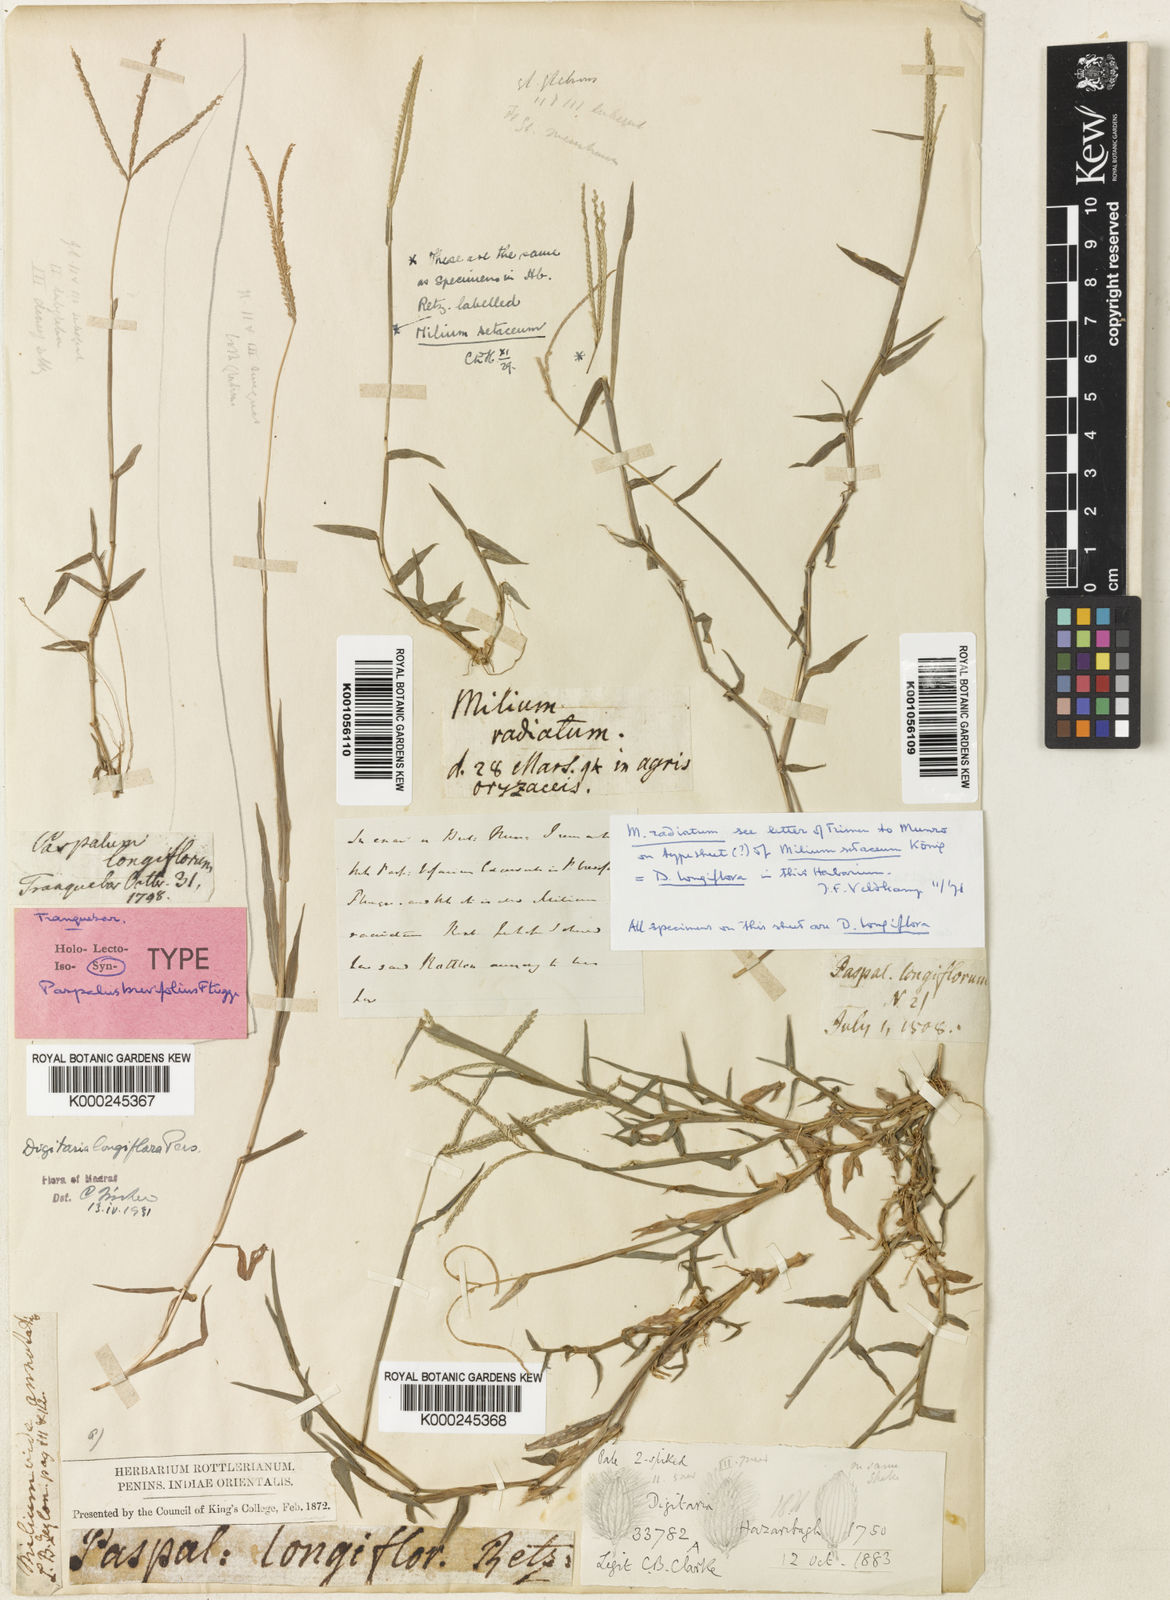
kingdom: Plantae
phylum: Tracheophyta
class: Liliopsida
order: Poales
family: Poaceae
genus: Digitaria
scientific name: Digitaria longiflora
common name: Wire crabgrass
